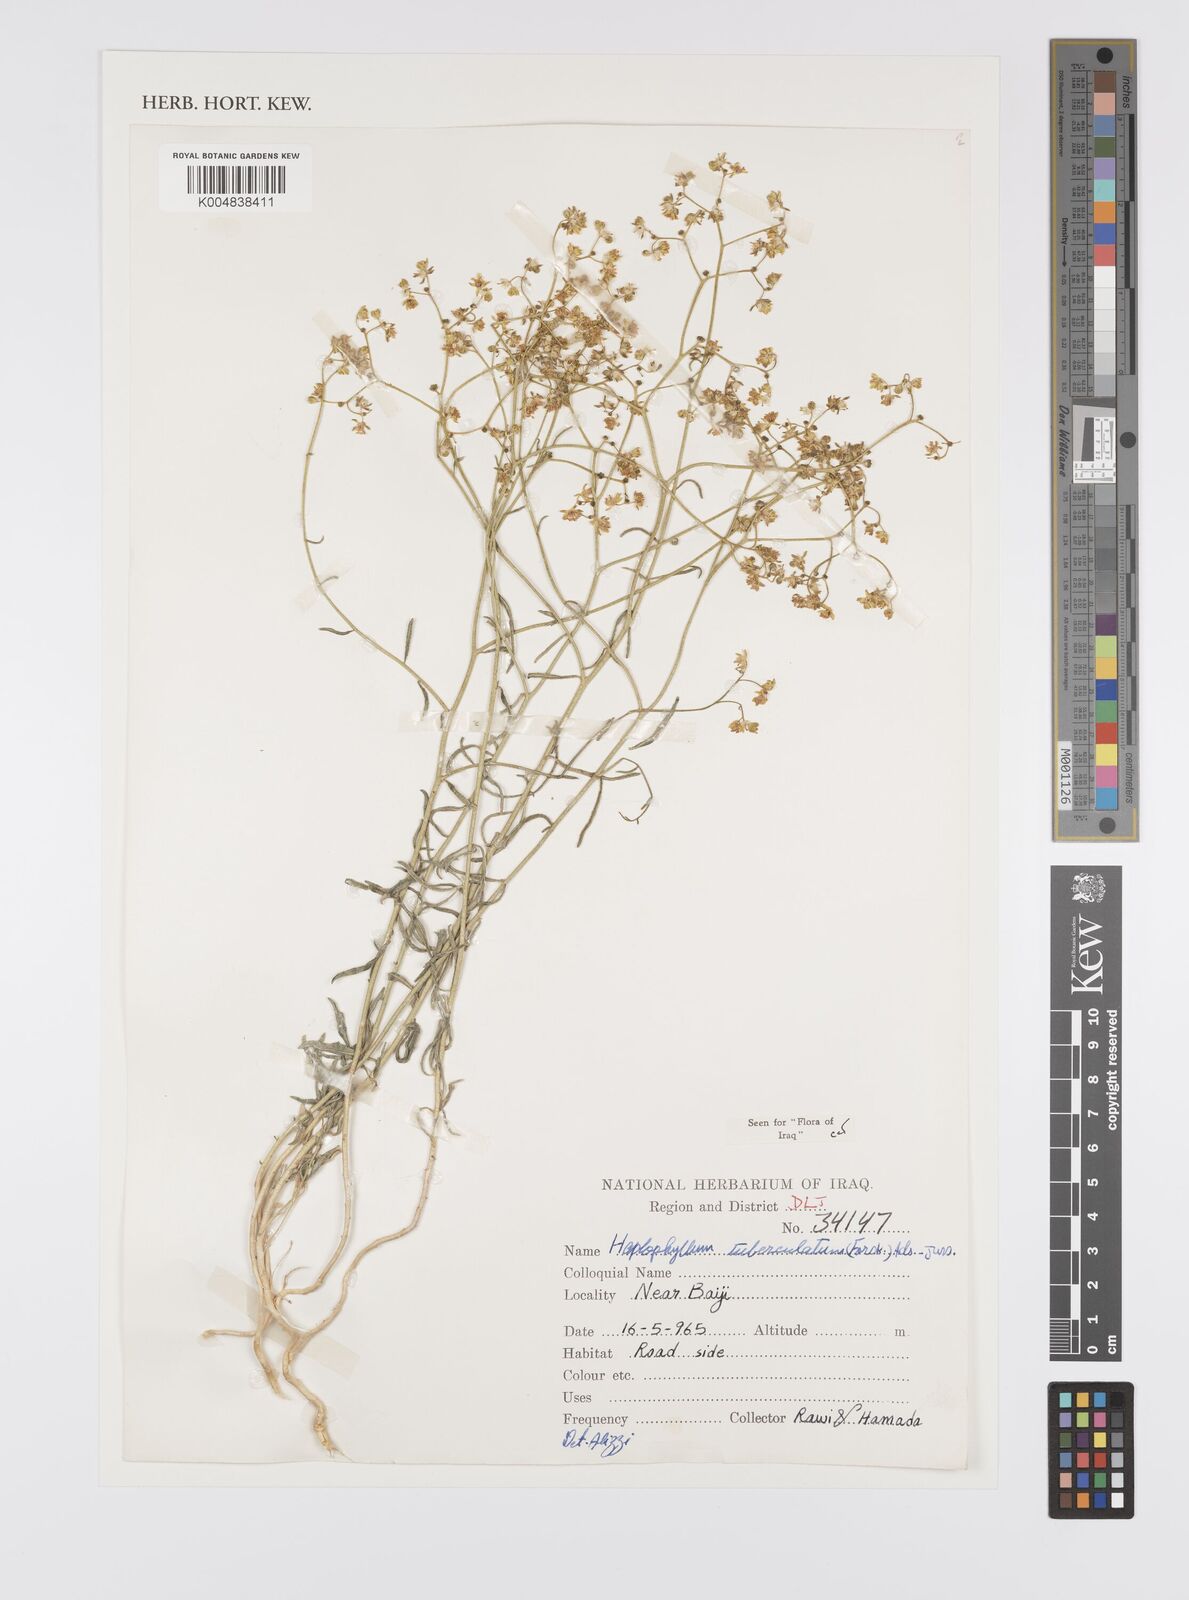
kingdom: Plantae
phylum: Tracheophyta
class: Magnoliopsida
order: Sapindales
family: Rutaceae
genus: Haplophyllum
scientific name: Haplophyllum tuberculatum
